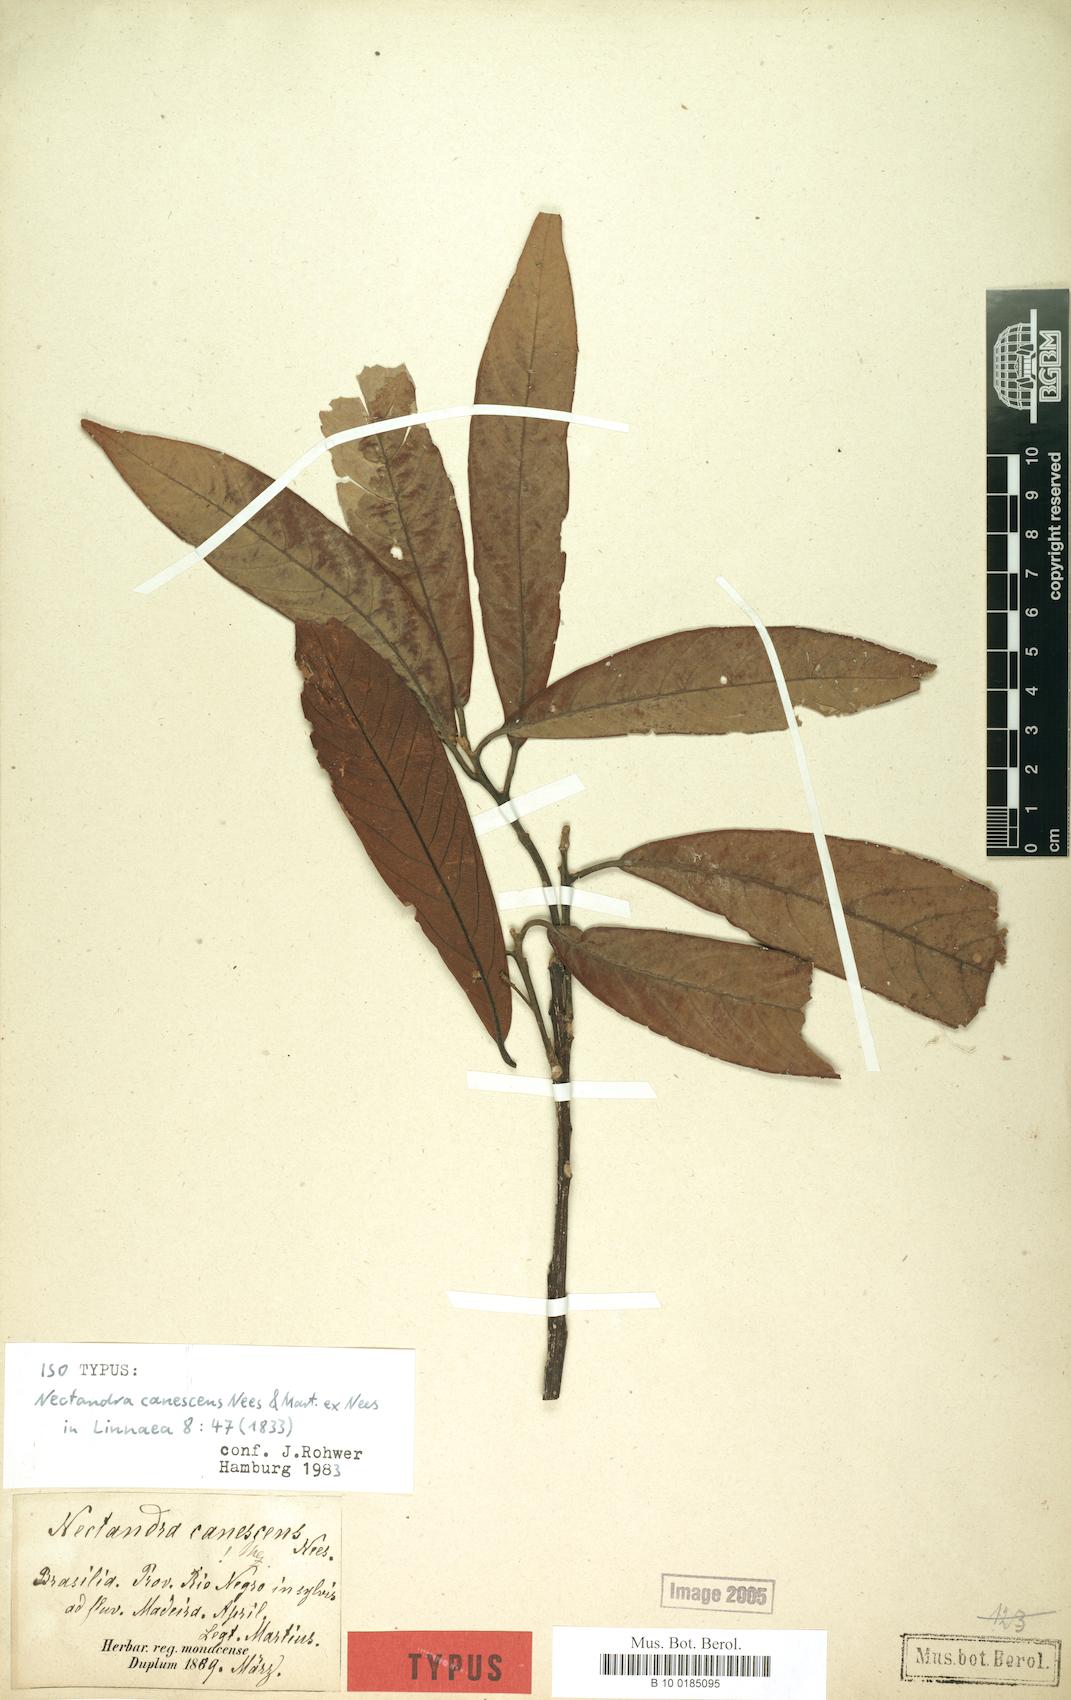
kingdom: Plantae
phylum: Tracheophyta
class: Magnoliopsida
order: Laurales
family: Lauraceae
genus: Nectandra
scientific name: Nectandra canescens
